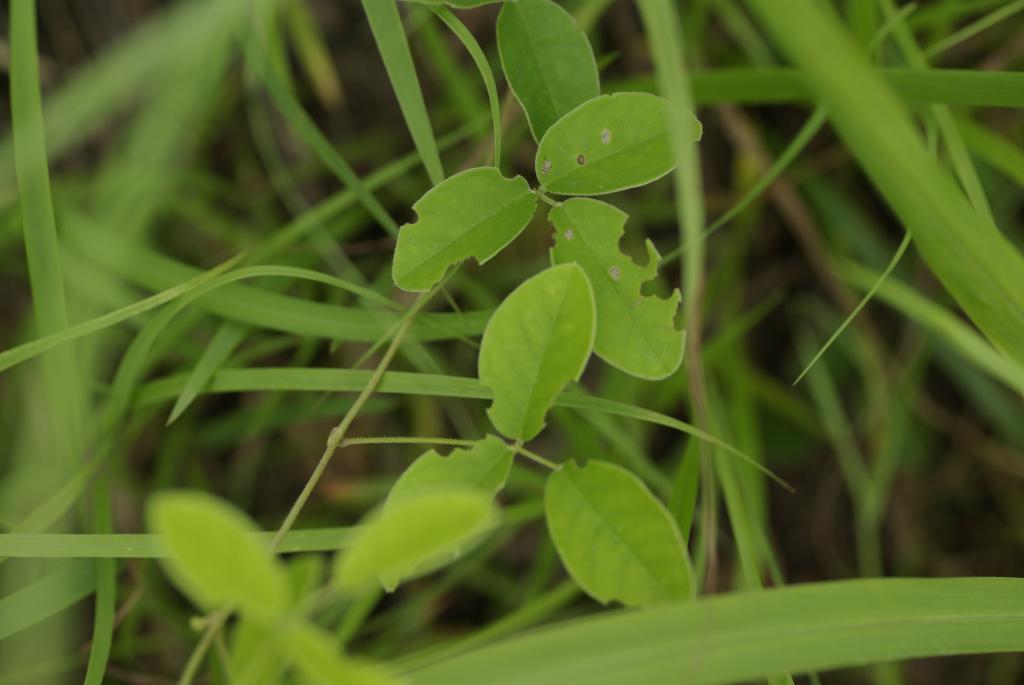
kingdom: Plantae
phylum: Tracheophyta
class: Magnoliopsida
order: Fabales
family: Fabaceae
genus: Galactia
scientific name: Galactia tashiroi
